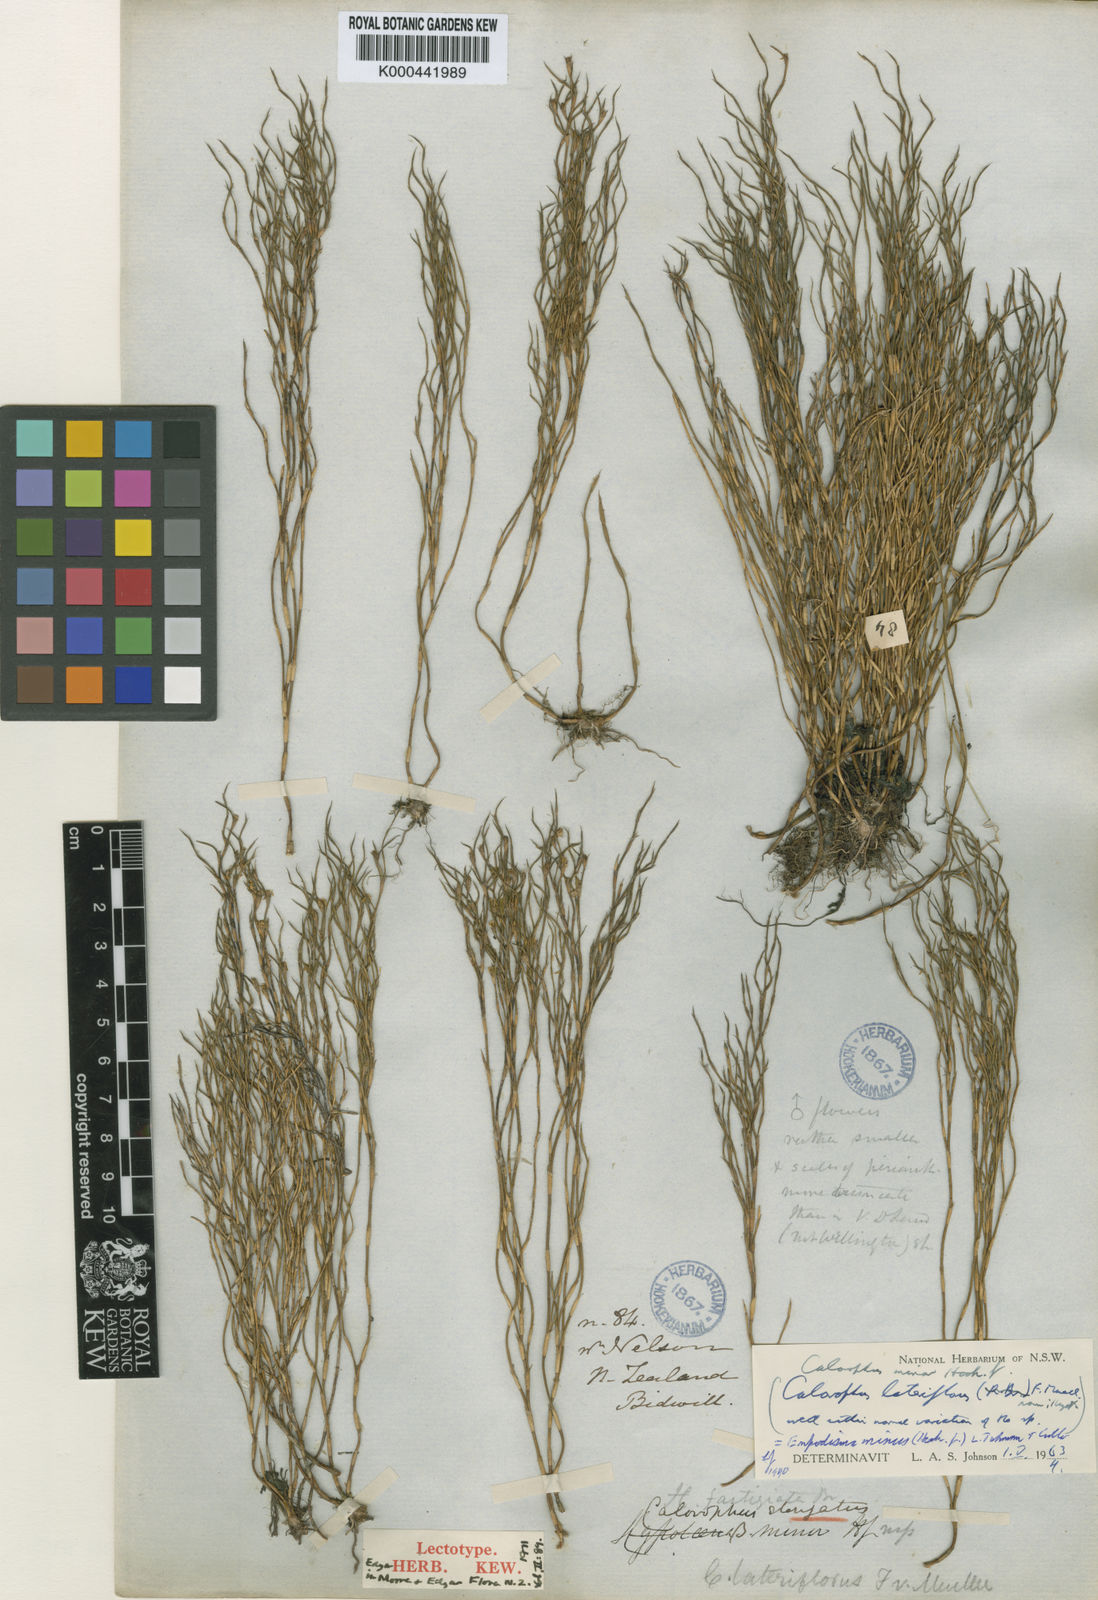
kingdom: Plantae
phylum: Tracheophyta
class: Liliopsida
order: Poales
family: Restionaceae
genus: Empodisma
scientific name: Empodisma minus
